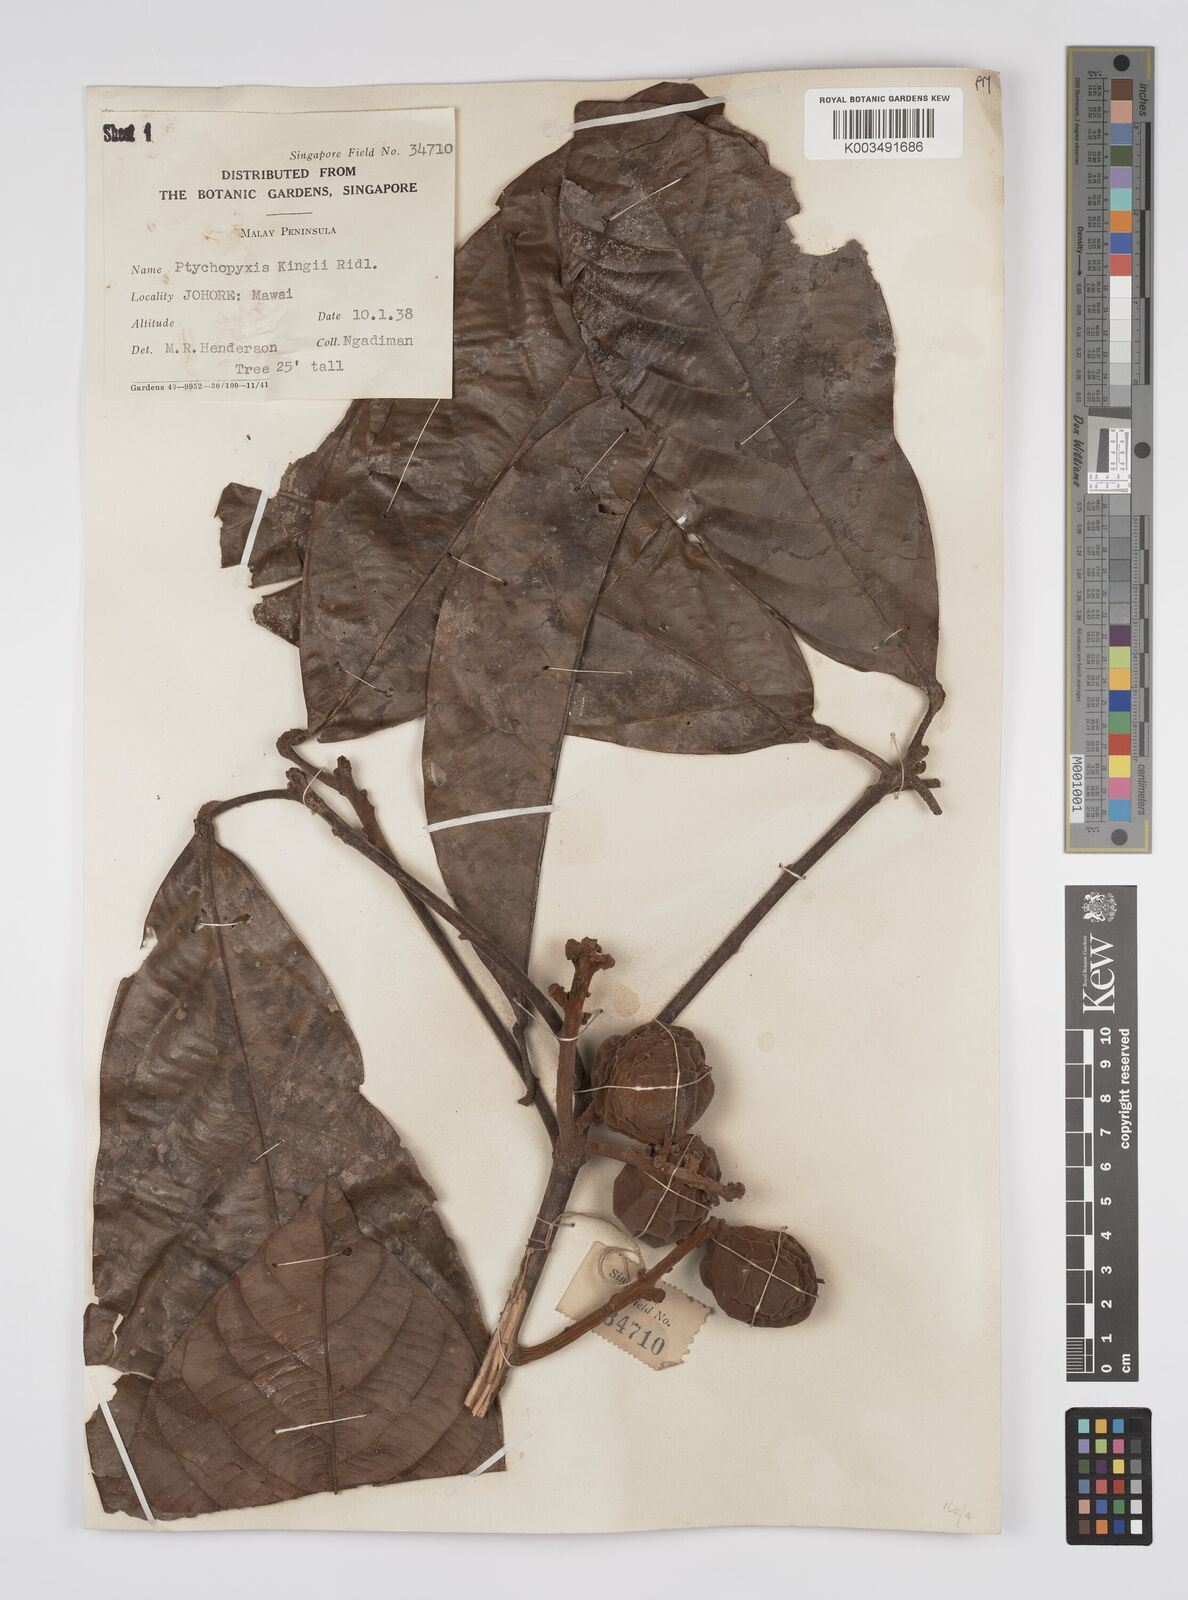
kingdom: Plantae
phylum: Tracheophyta
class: Magnoliopsida
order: Malpighiales
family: Euphorbiaceae
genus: Ptychopyxis
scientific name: Ptychopyxis kingii
